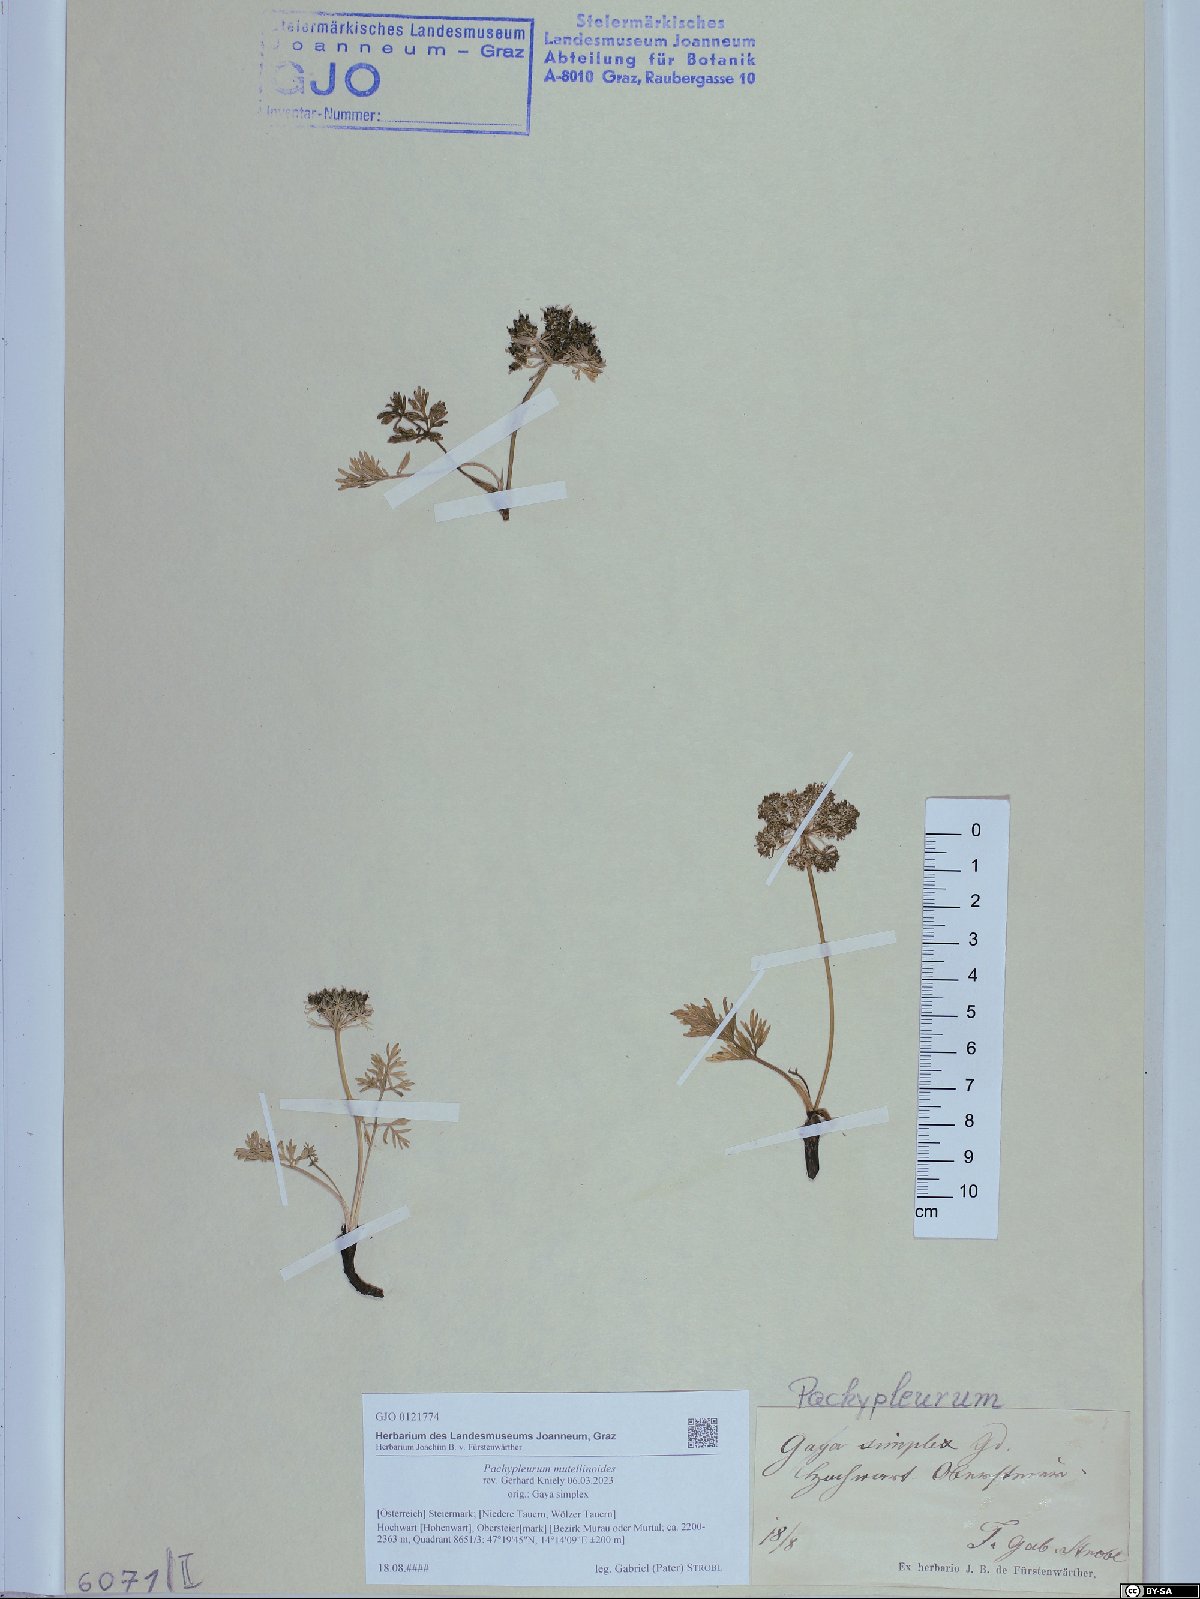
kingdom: Plantae
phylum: Tracheophyta
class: Magnoliopsida
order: Apiales
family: Apiaceae
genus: Pachypleurum
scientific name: Pachypleurum mutellinoides
